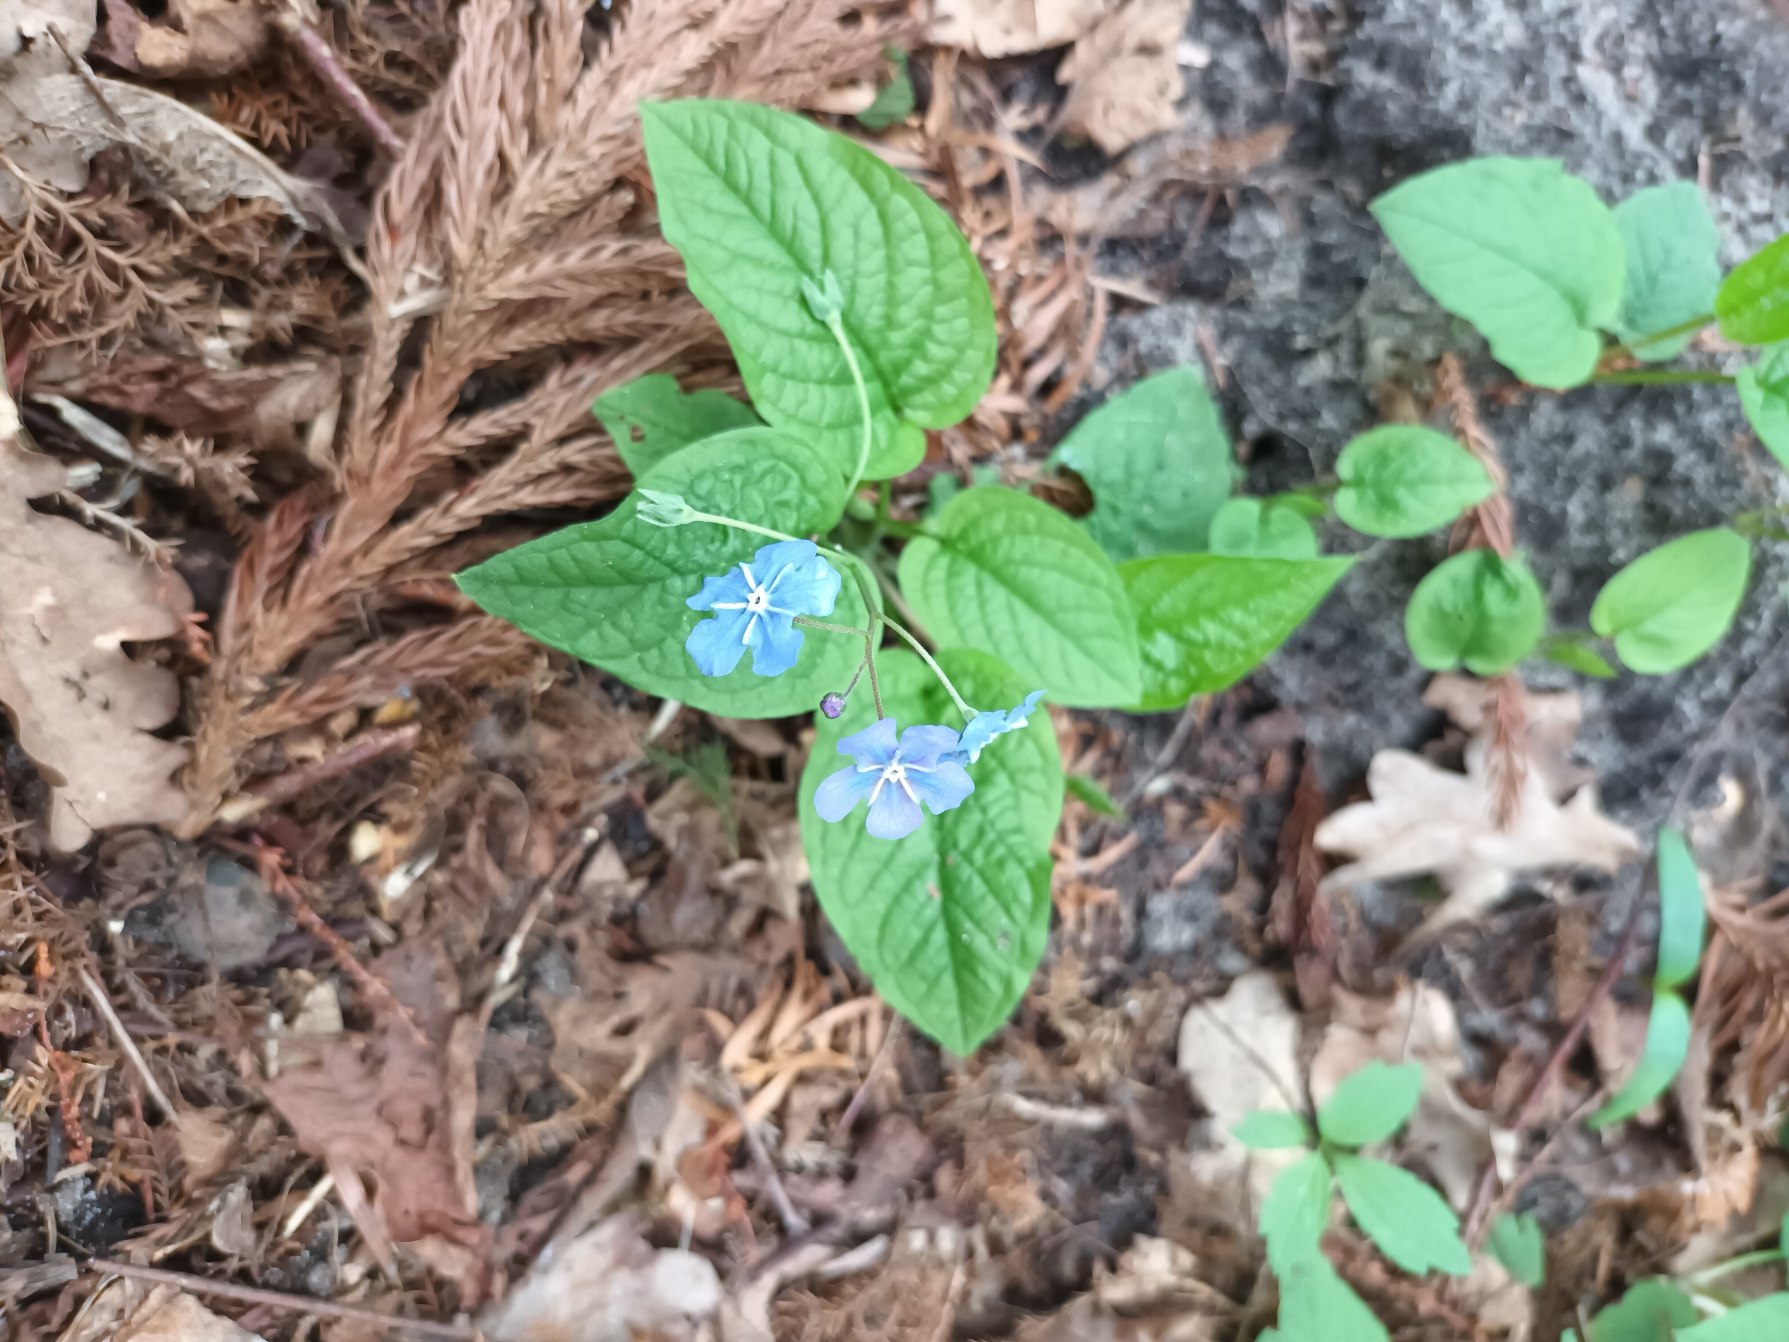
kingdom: Plantae
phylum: Tracheophyta
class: Magnoliopsida
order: Boraginales
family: Boraginaceae
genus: Omphalodes
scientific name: Omphalodes verna
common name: Vår-kærminde
